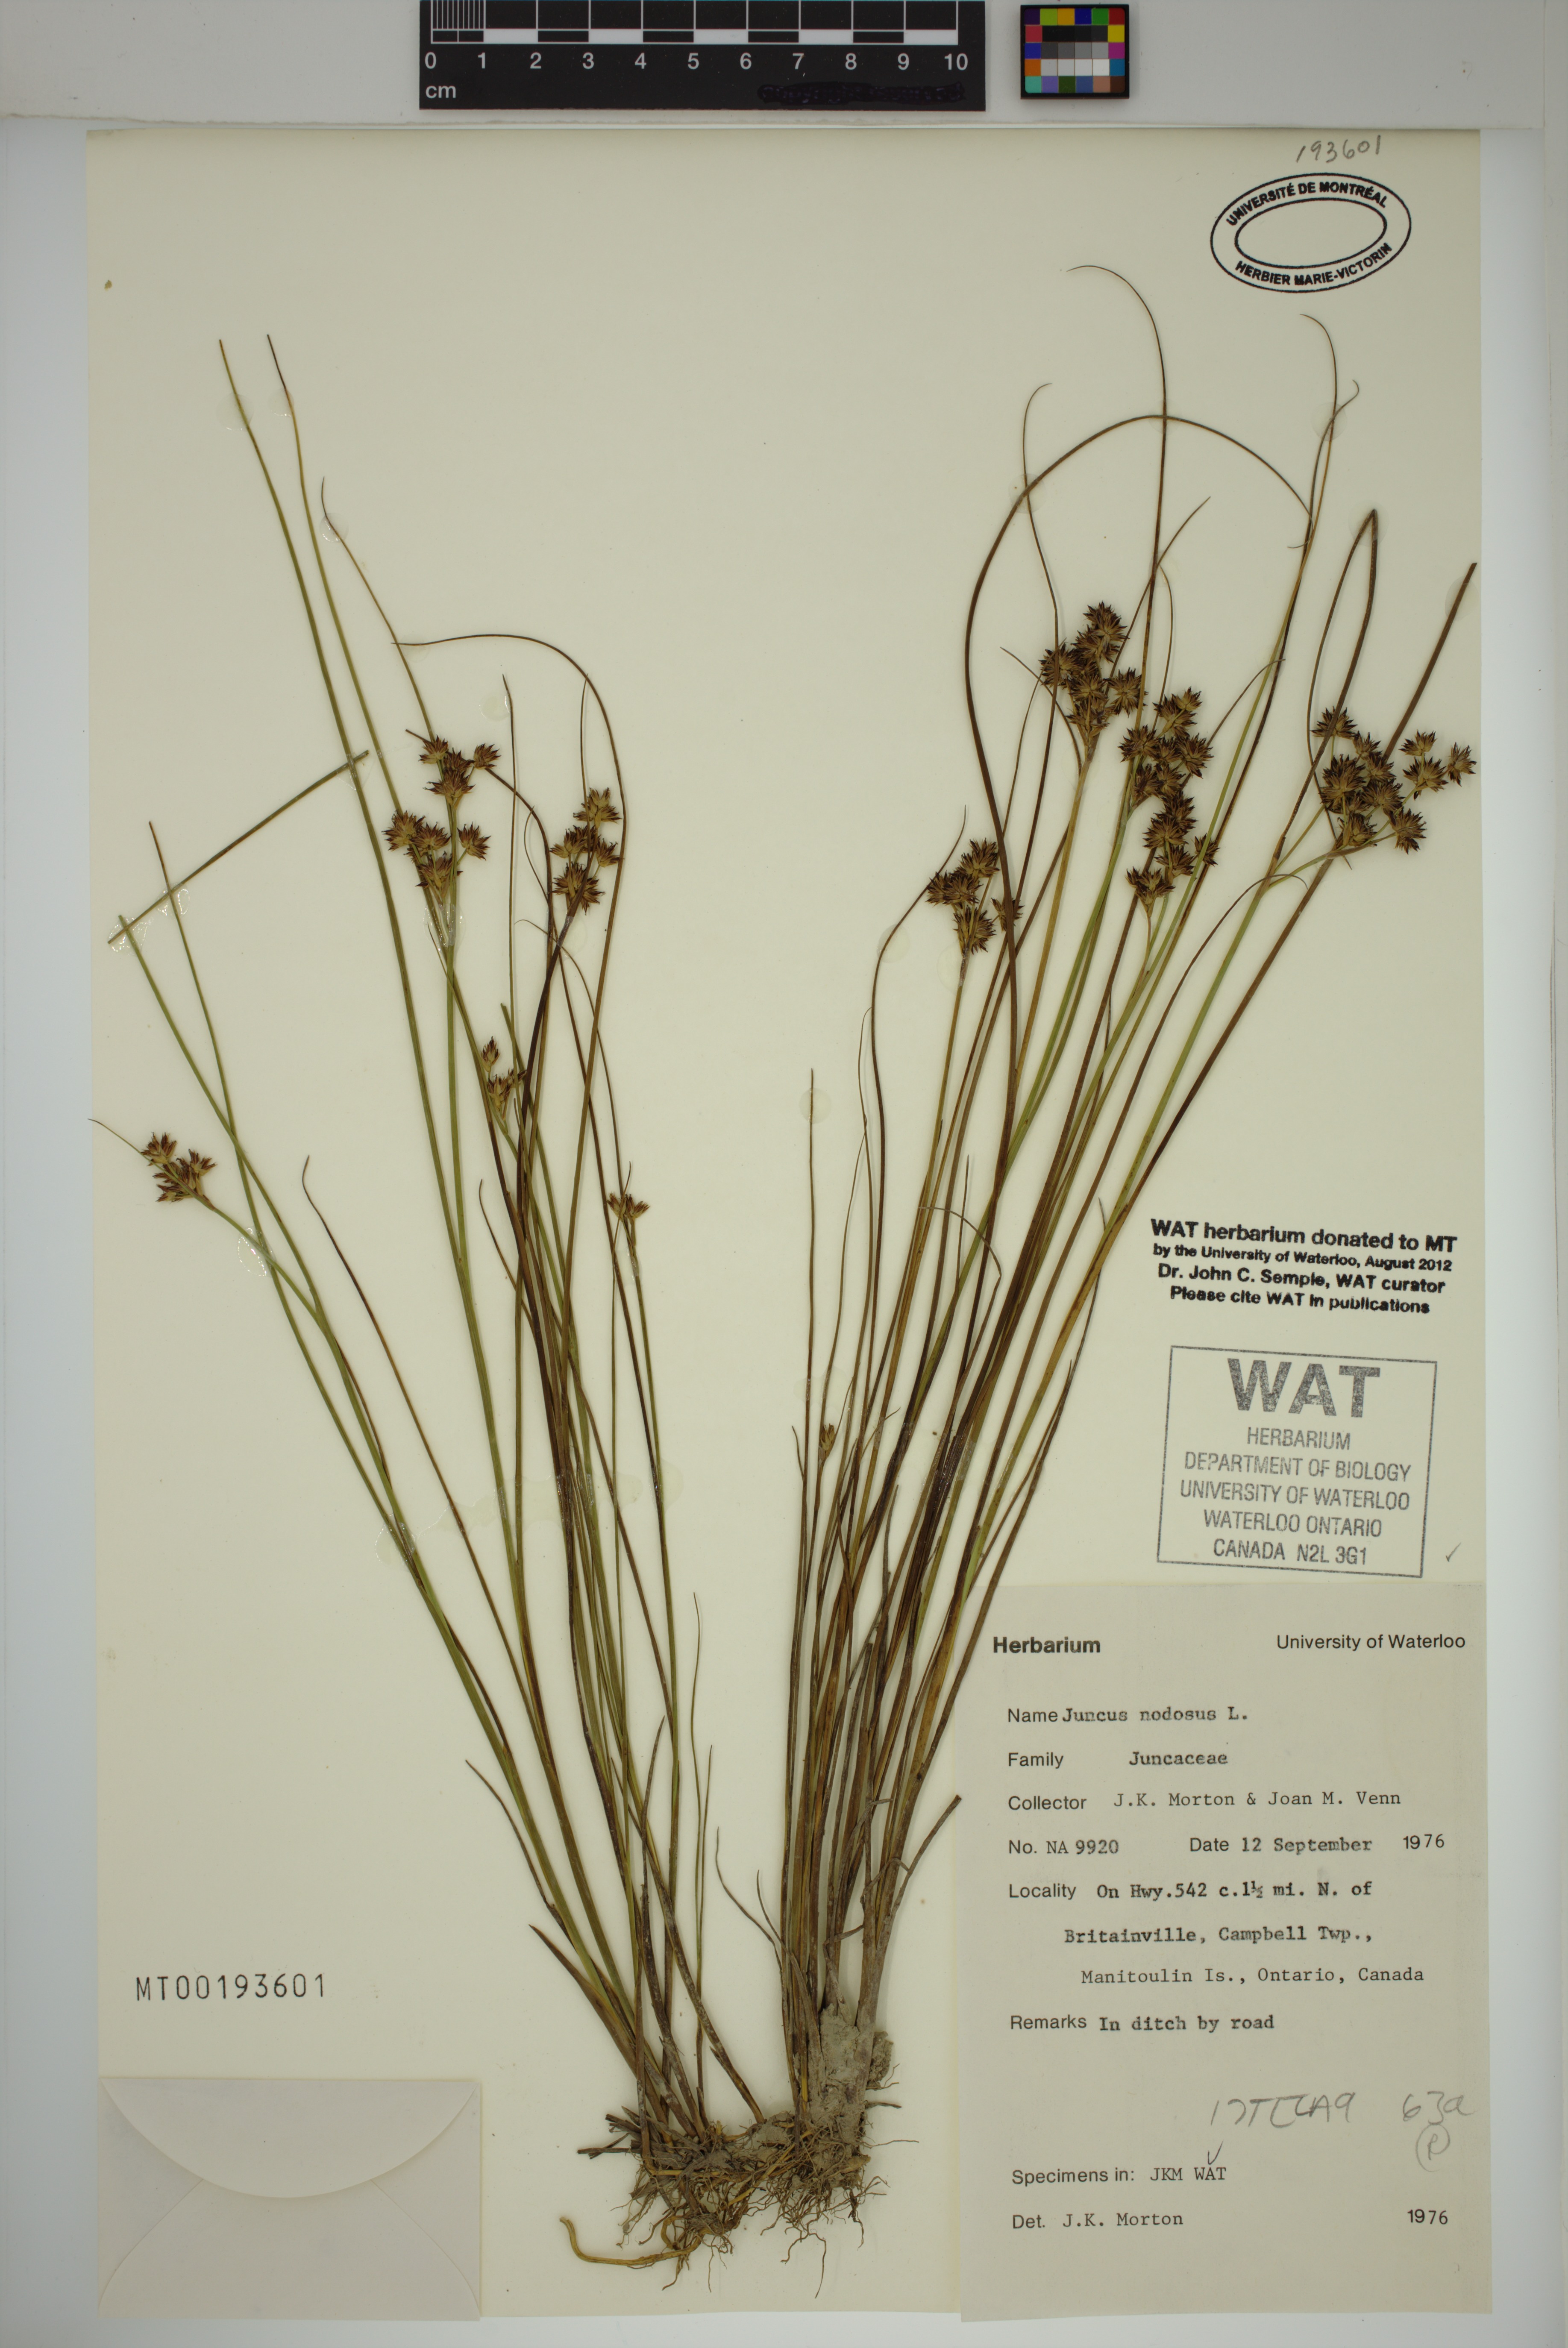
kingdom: Plantae
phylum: Tracheophyta
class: Liliopsida
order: Poales
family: Juncaceae
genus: Juncus
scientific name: Juncus nodosus
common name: Knotted rush
